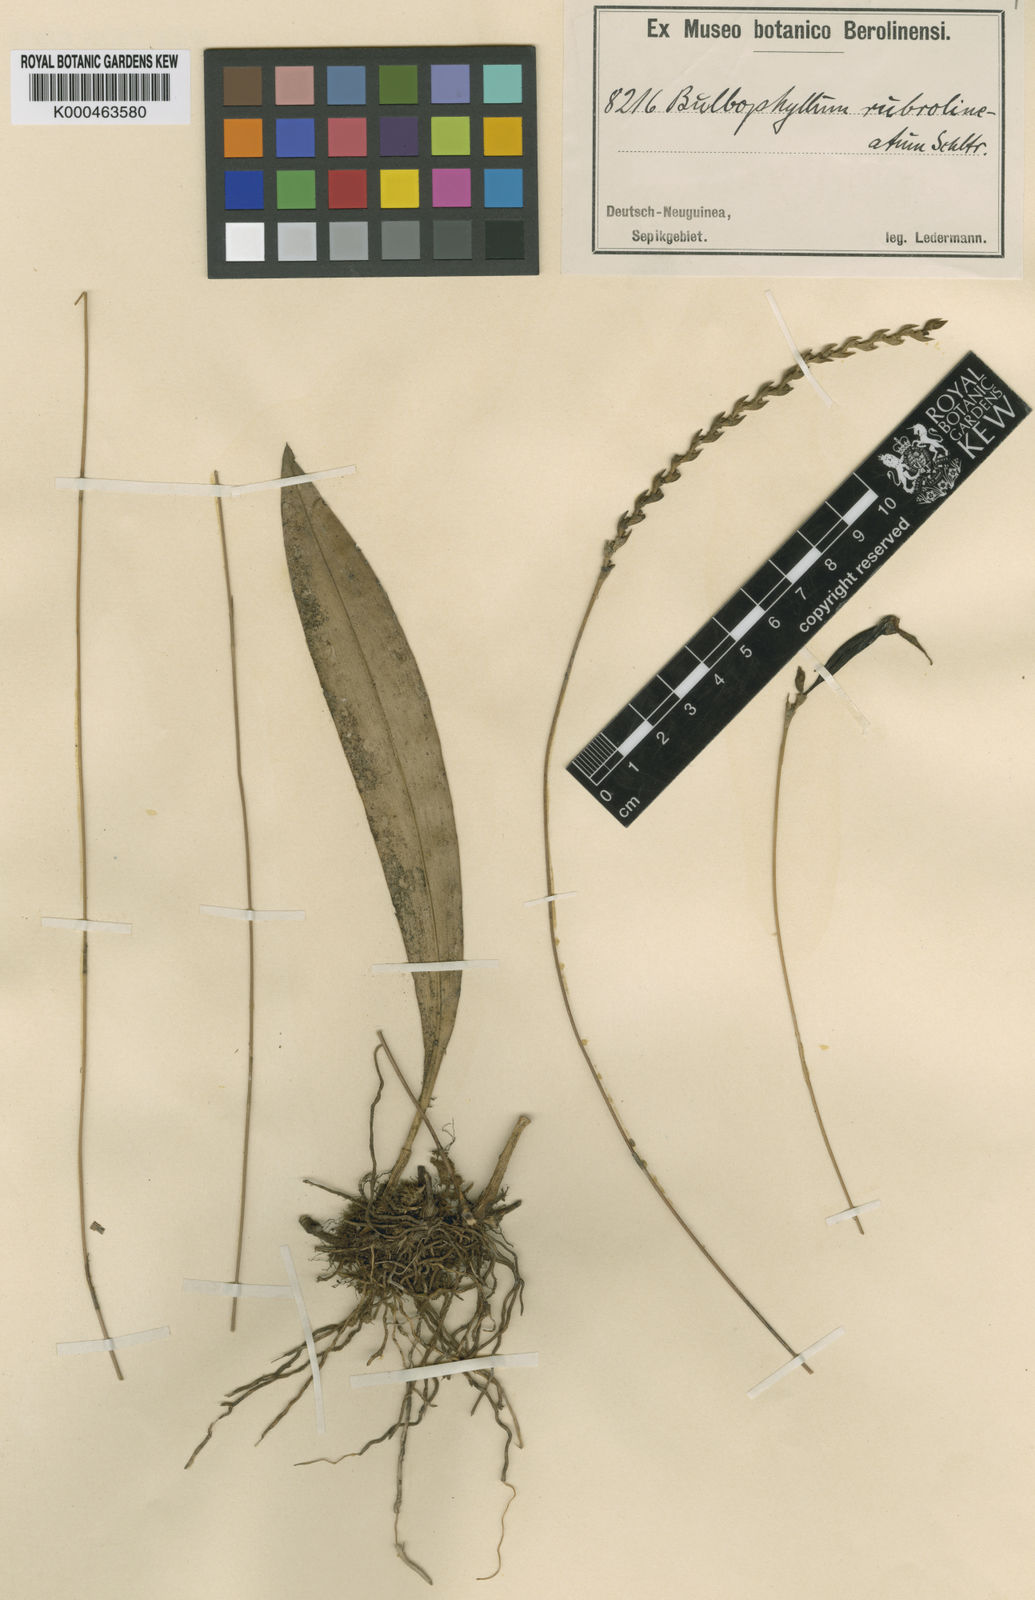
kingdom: Plantae
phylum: Tracheophyta
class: Liliopsida
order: Asparagales
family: Orchidaceae
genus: Bulbophyllum
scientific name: Bulbophyllum rubrolineatum
